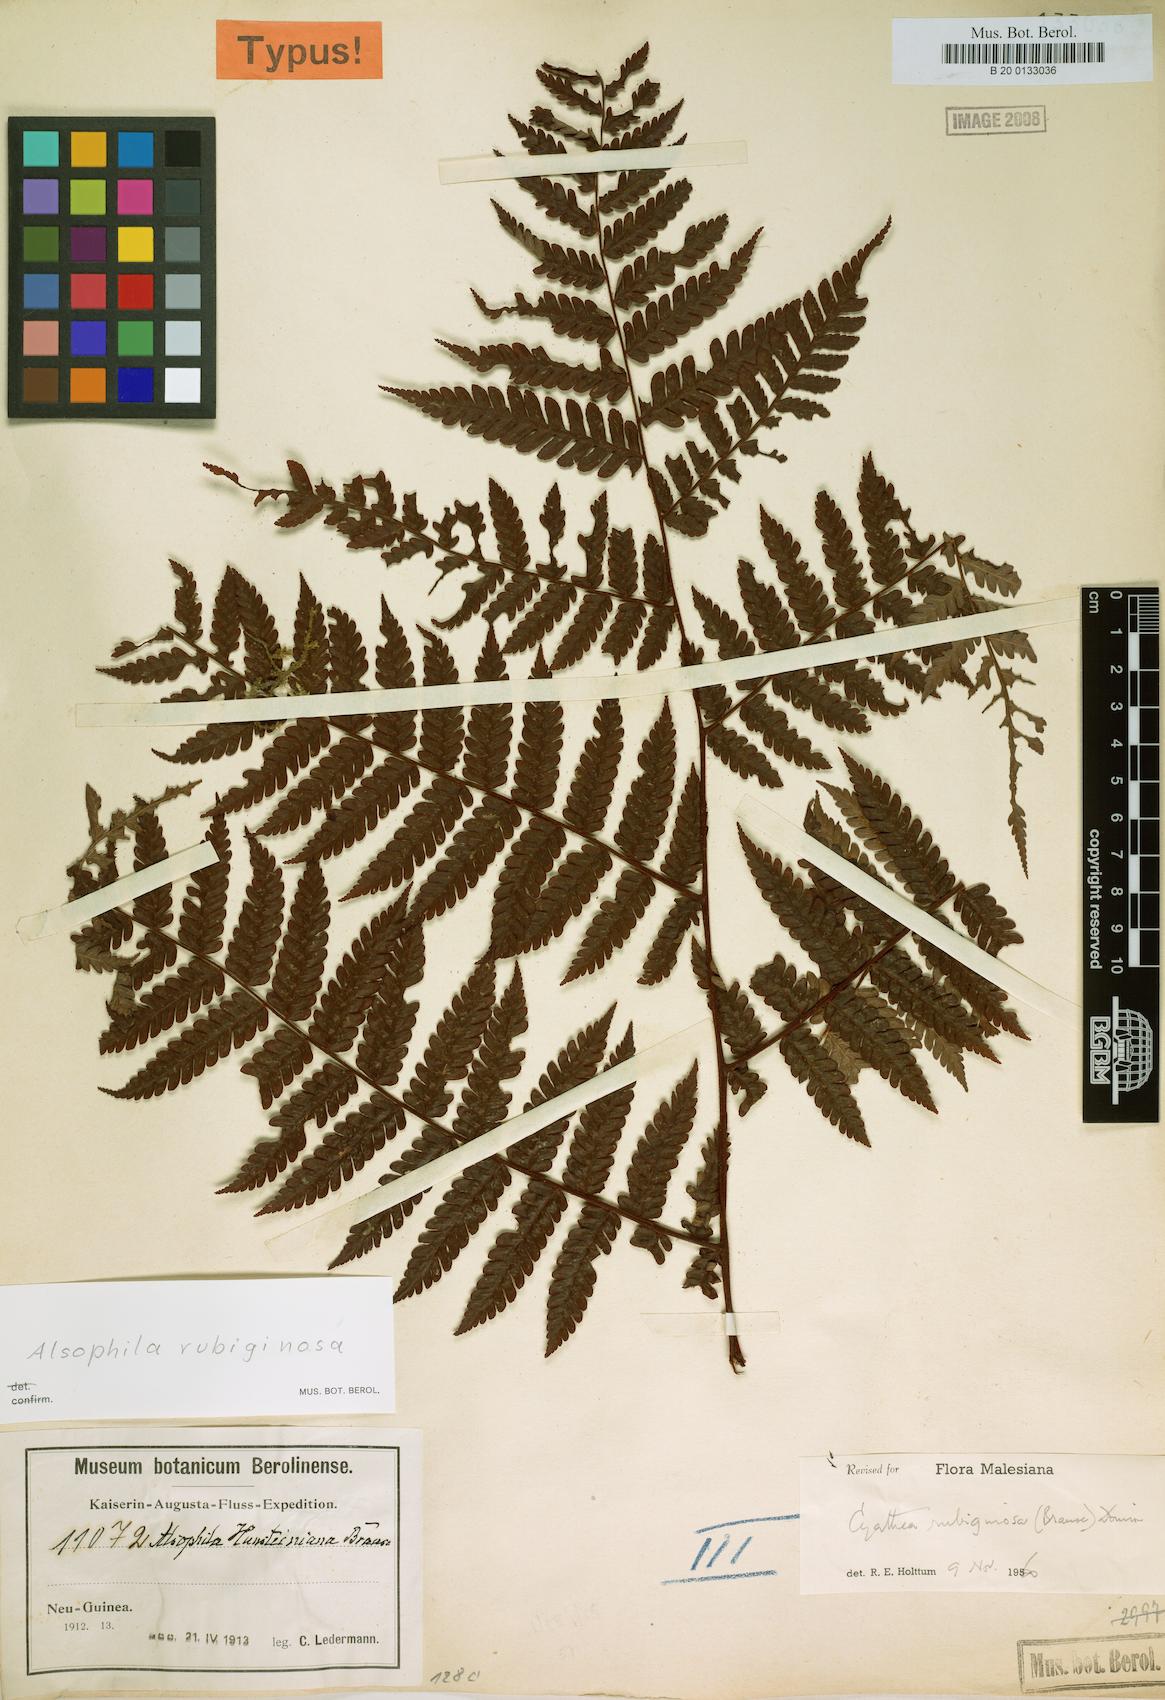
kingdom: Plantae
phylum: Tracheophyta
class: Polypodiopsida
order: Cyatheales
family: Cyatheaceae
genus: Alsophila
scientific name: Alsophila rubiginosa
